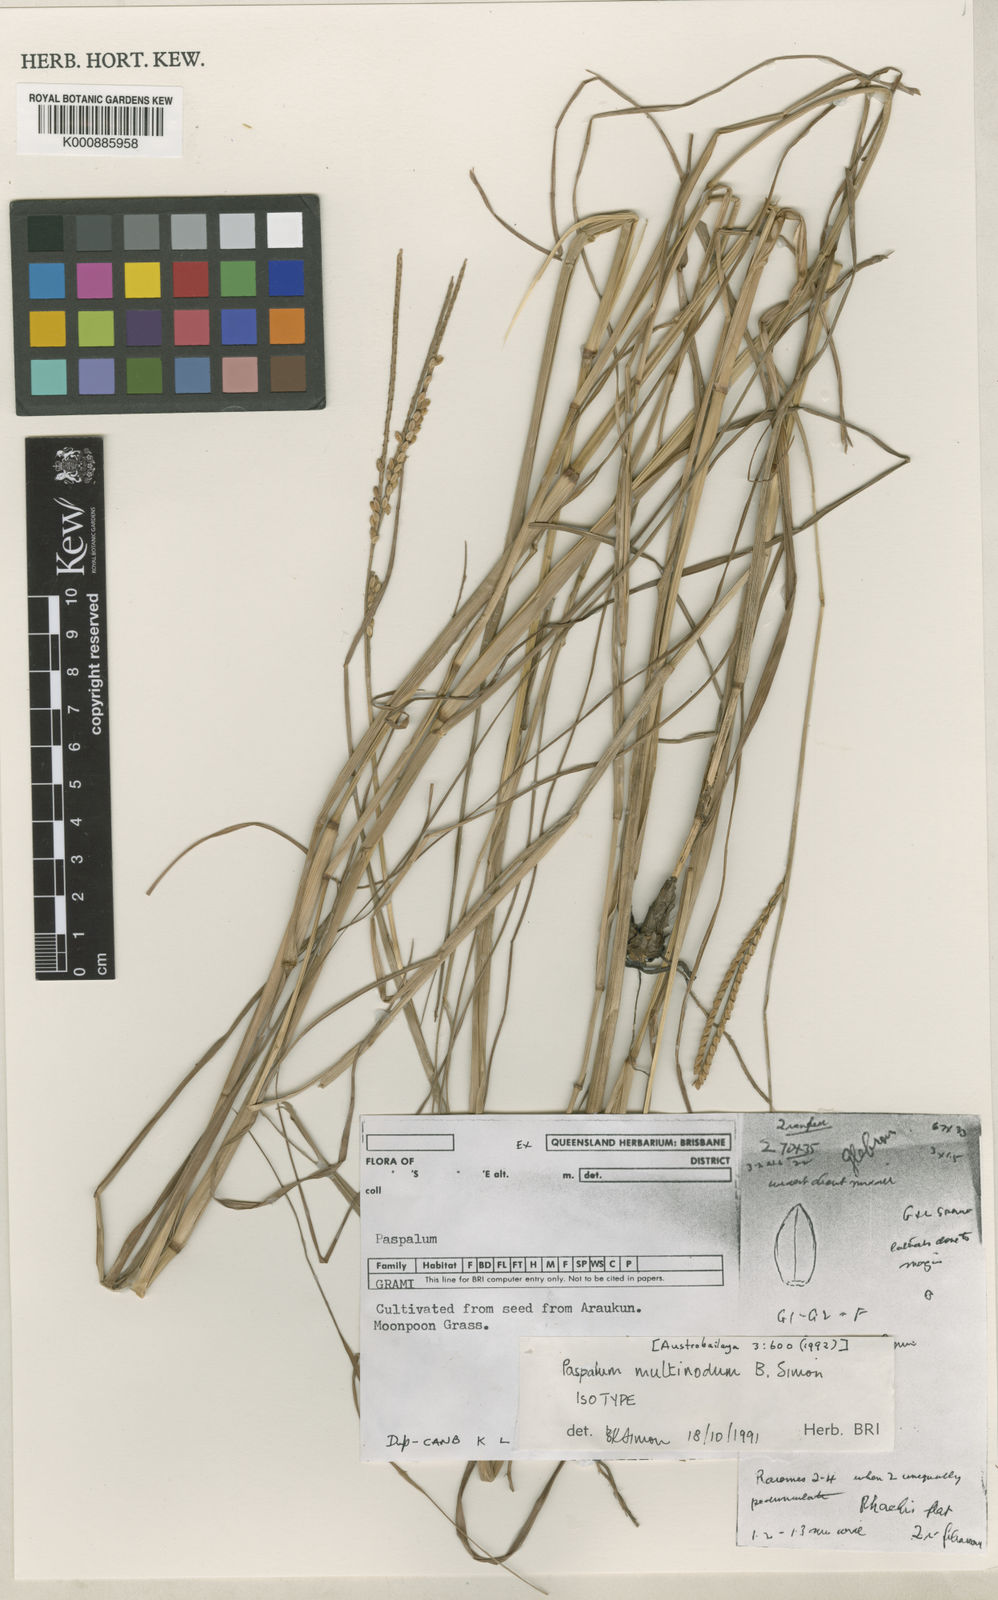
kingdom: Plantae
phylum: Tracheophyta
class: Liliopsida
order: Poales
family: Poaceae
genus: Paspalum
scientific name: Paspalum multinodum
